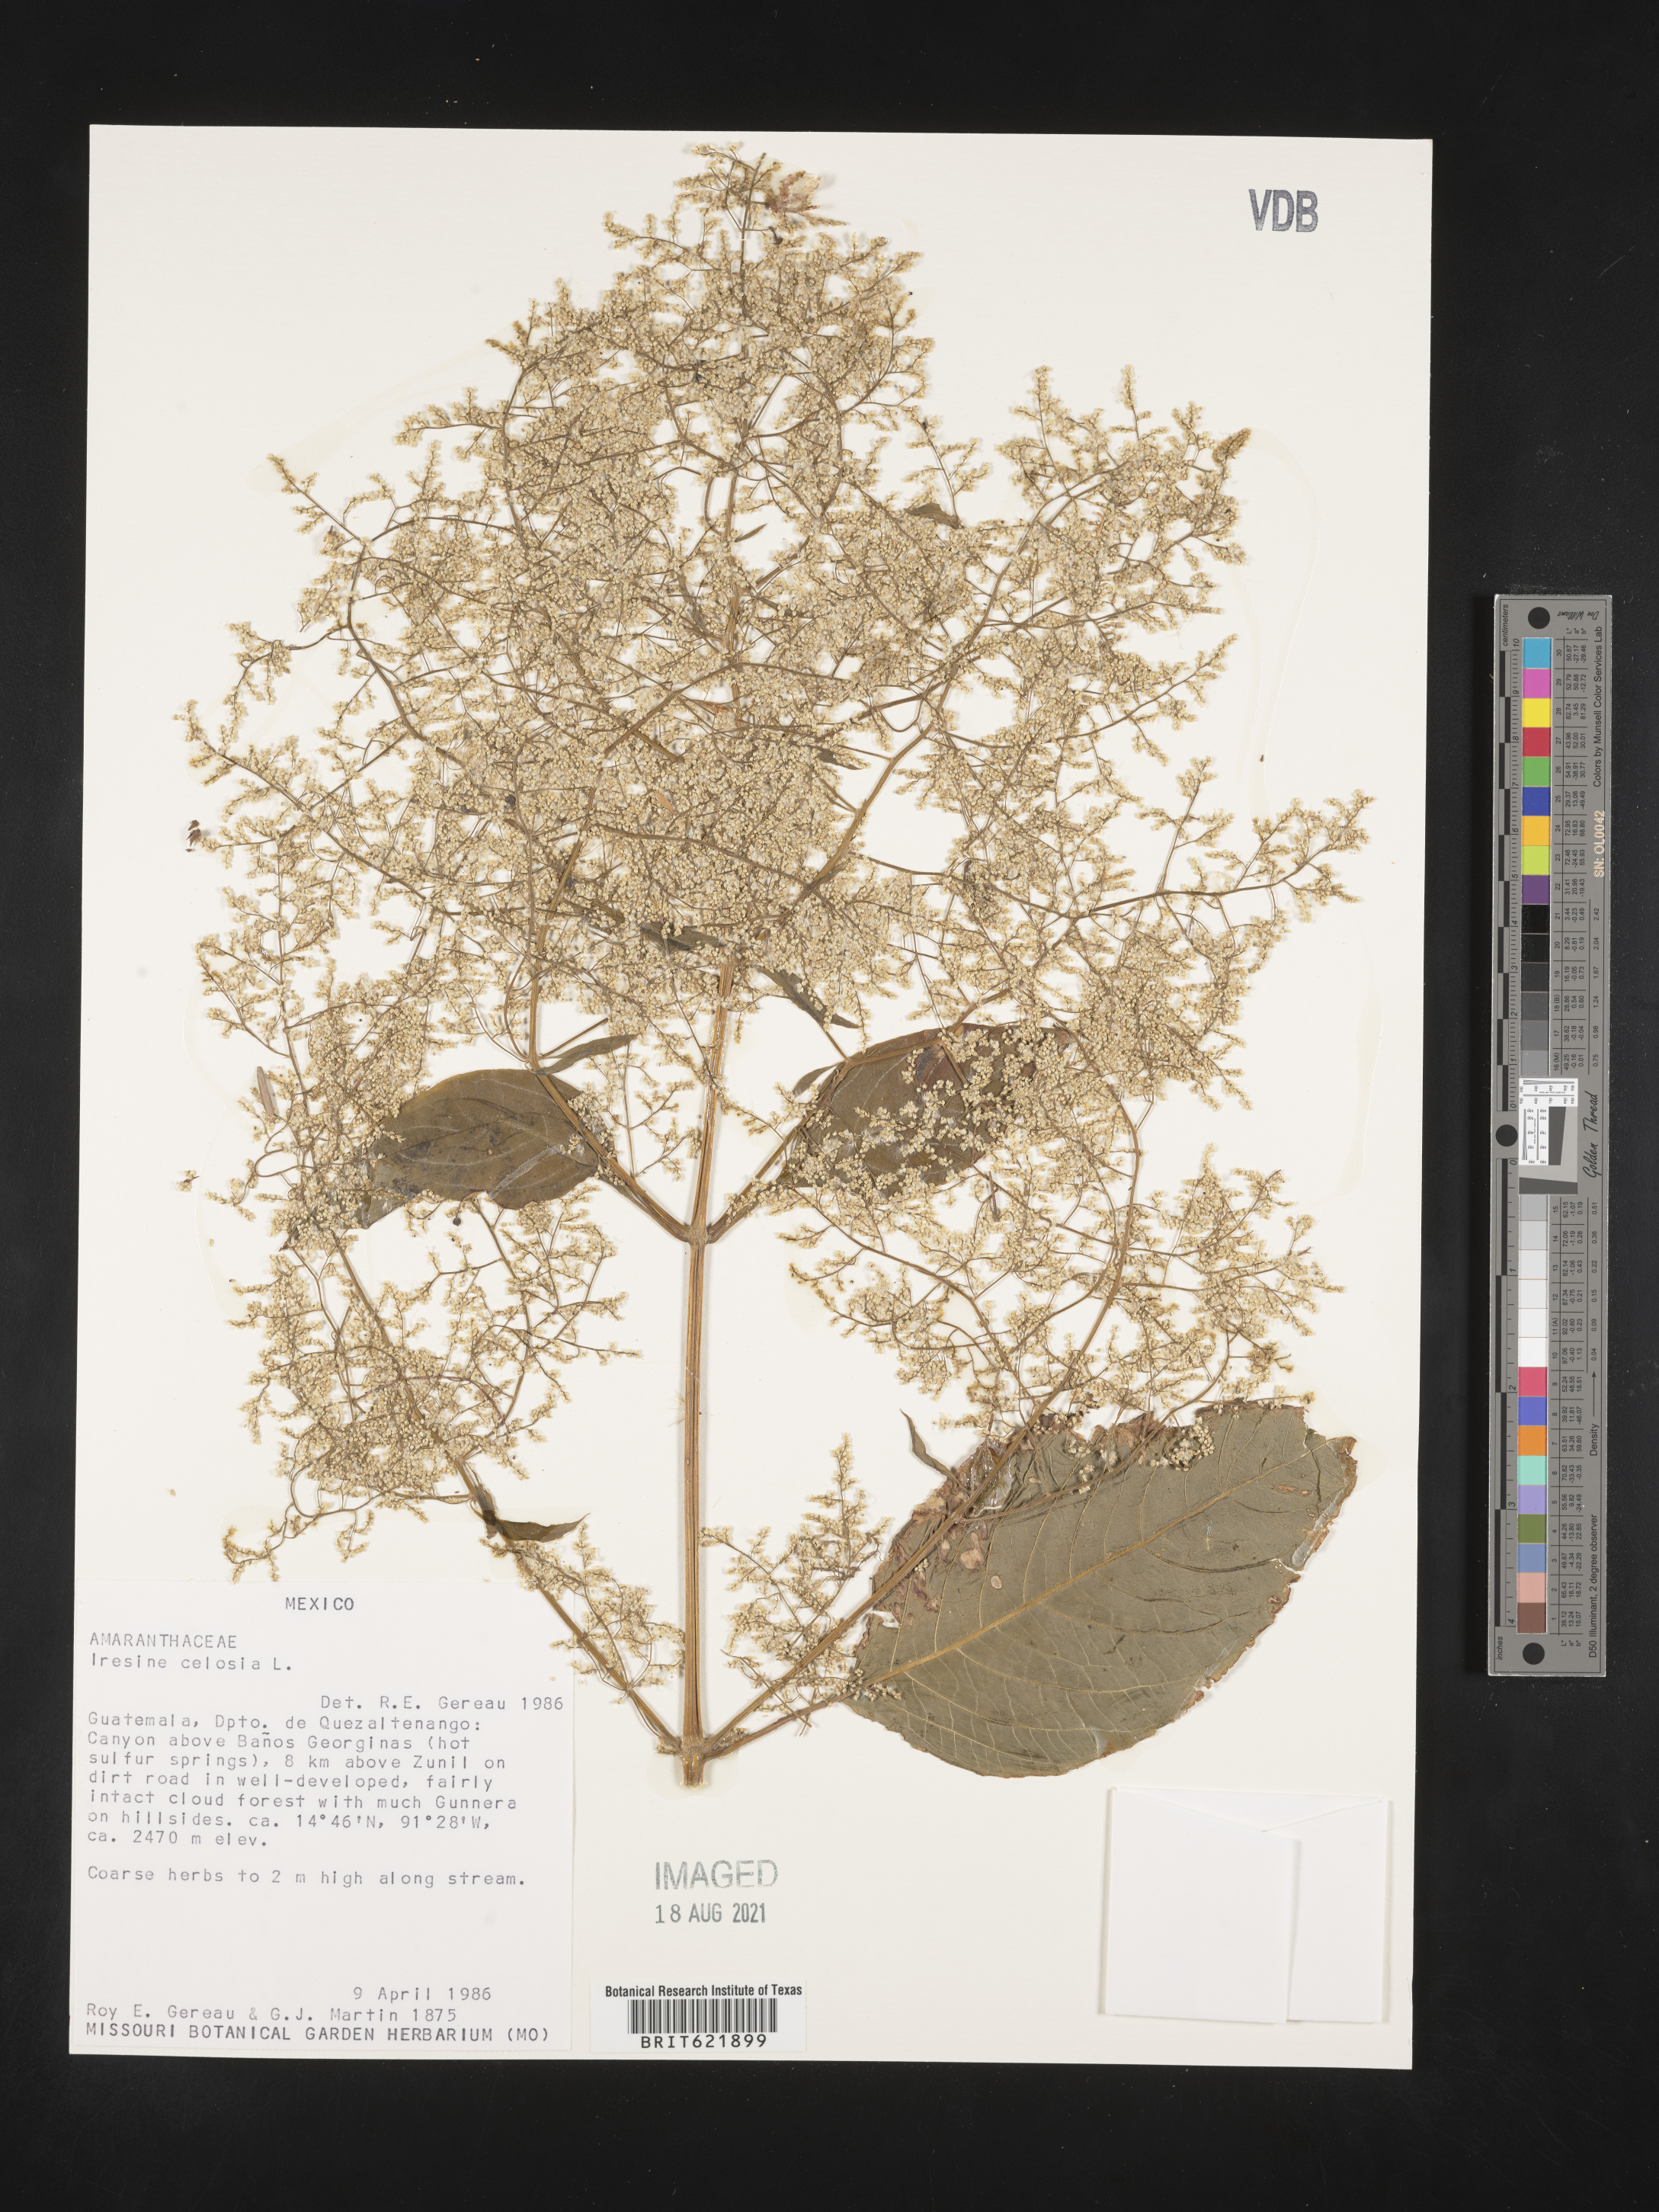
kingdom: Plantae
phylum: Tracheophyta
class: Magnoliopsida
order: Caryophyllales
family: Amaranthaceae
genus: Iresine
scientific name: Iresine
